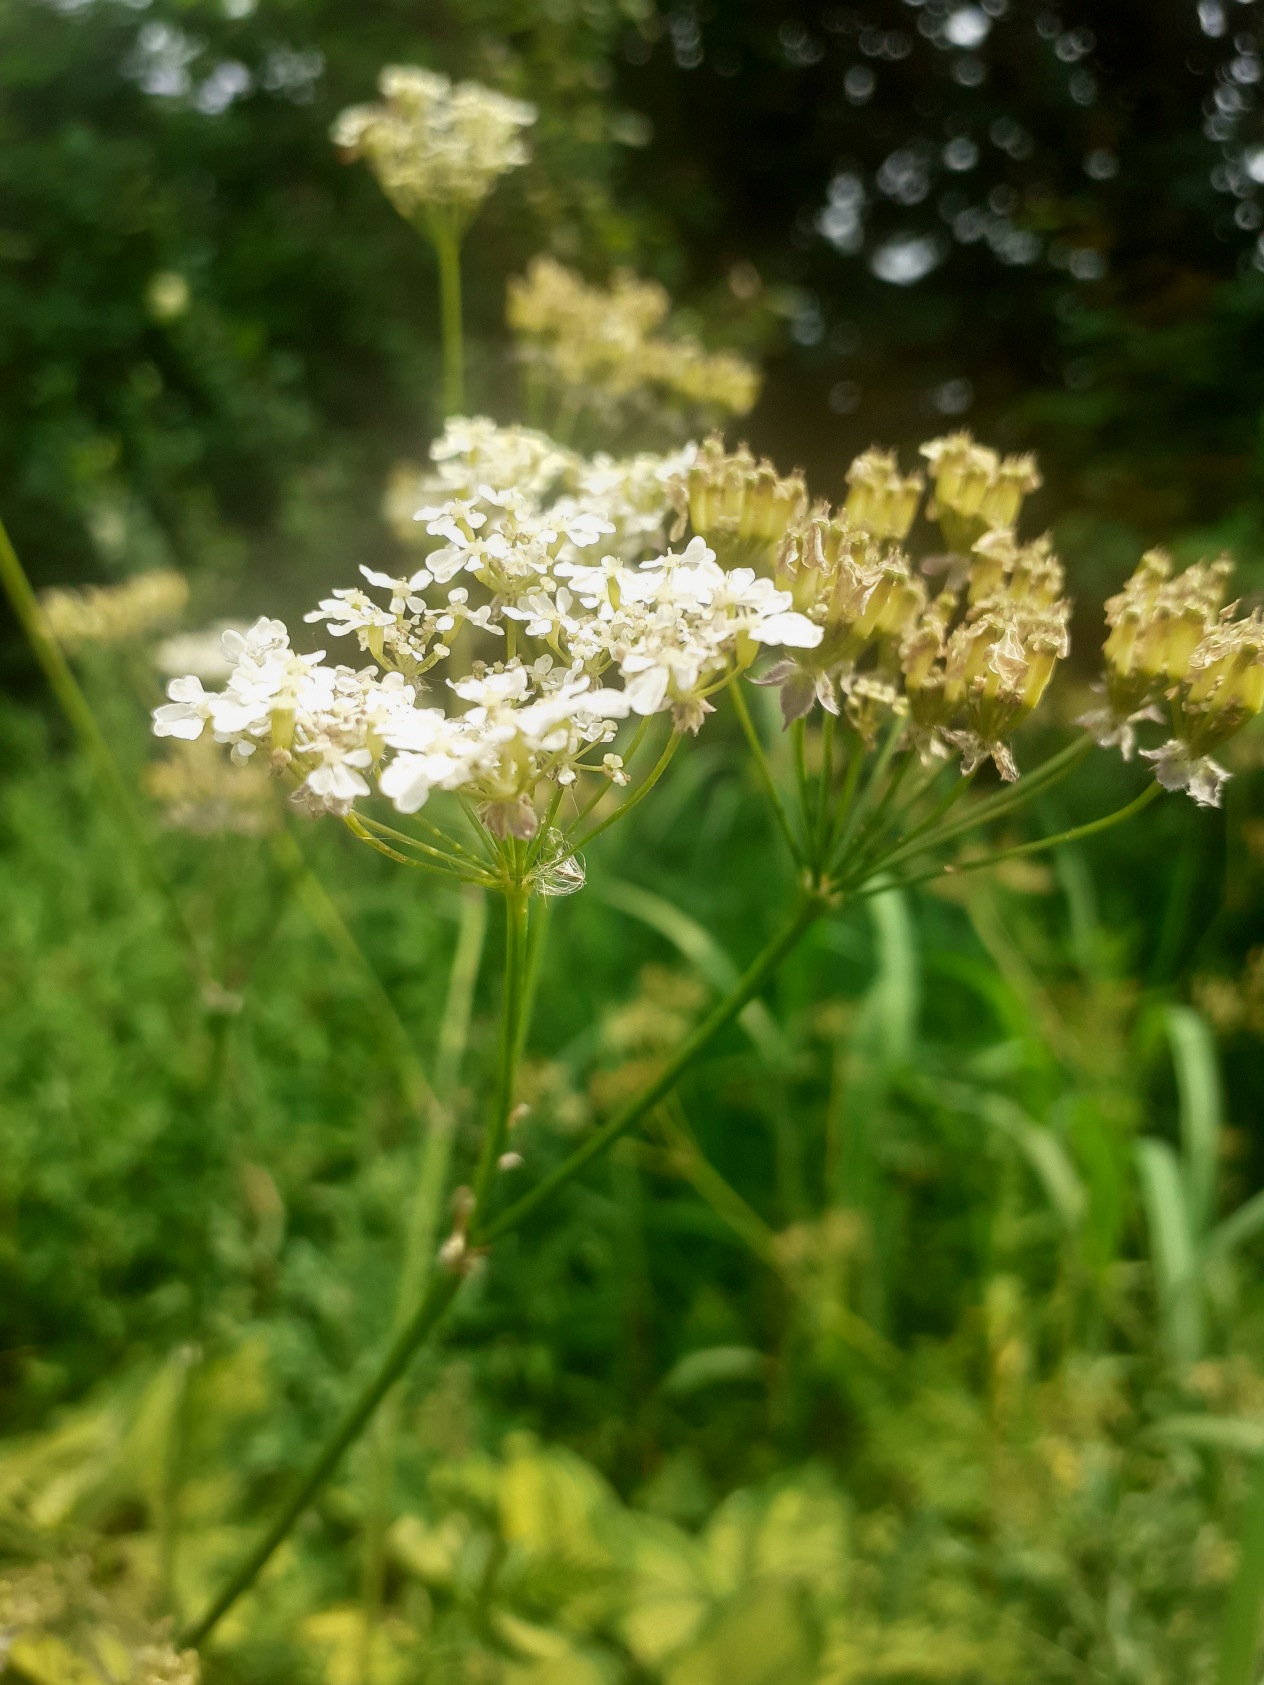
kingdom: Plantae
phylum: Tracheophyta
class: Magnoliopsida
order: Apiales
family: Apiaceae
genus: Anthriscus
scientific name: Anthriscus sylvestris
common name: Vild kørvel
